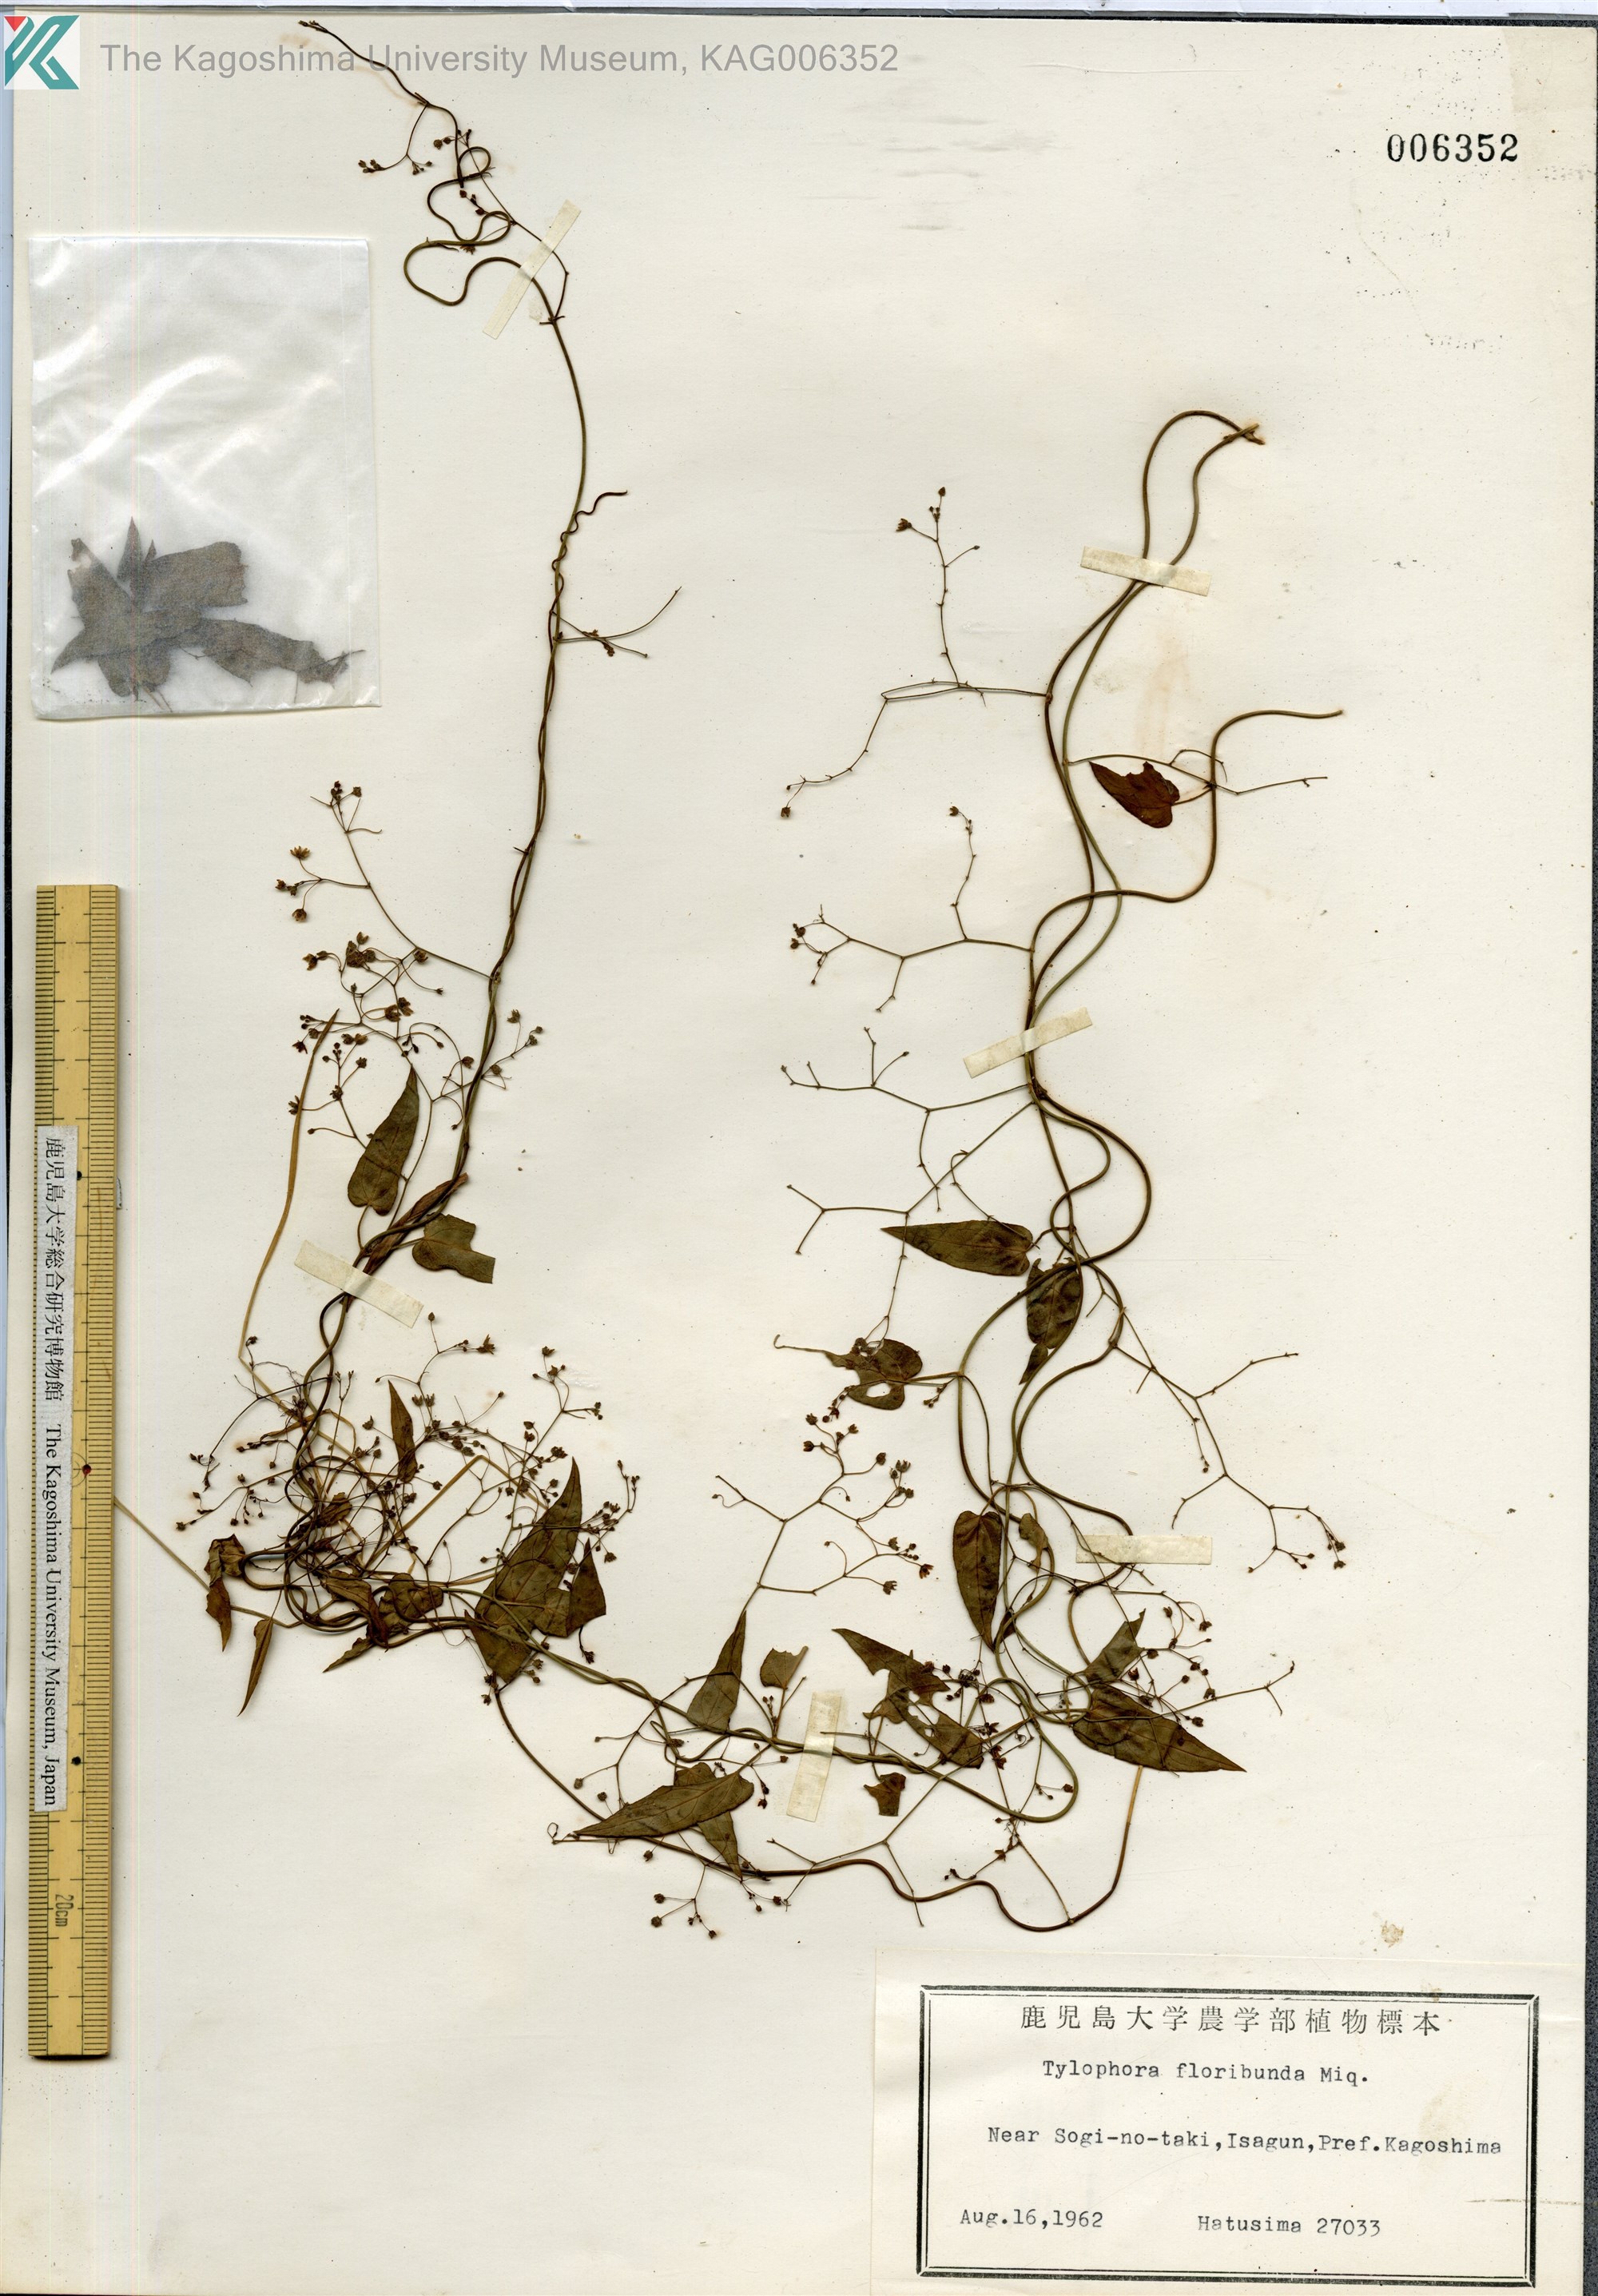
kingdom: Plantae
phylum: Tracheophyta
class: Magnoliopsida
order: Gentianales
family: Apocynaceae
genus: Vincetoxicum
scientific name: Vincetoxicum nikoense
